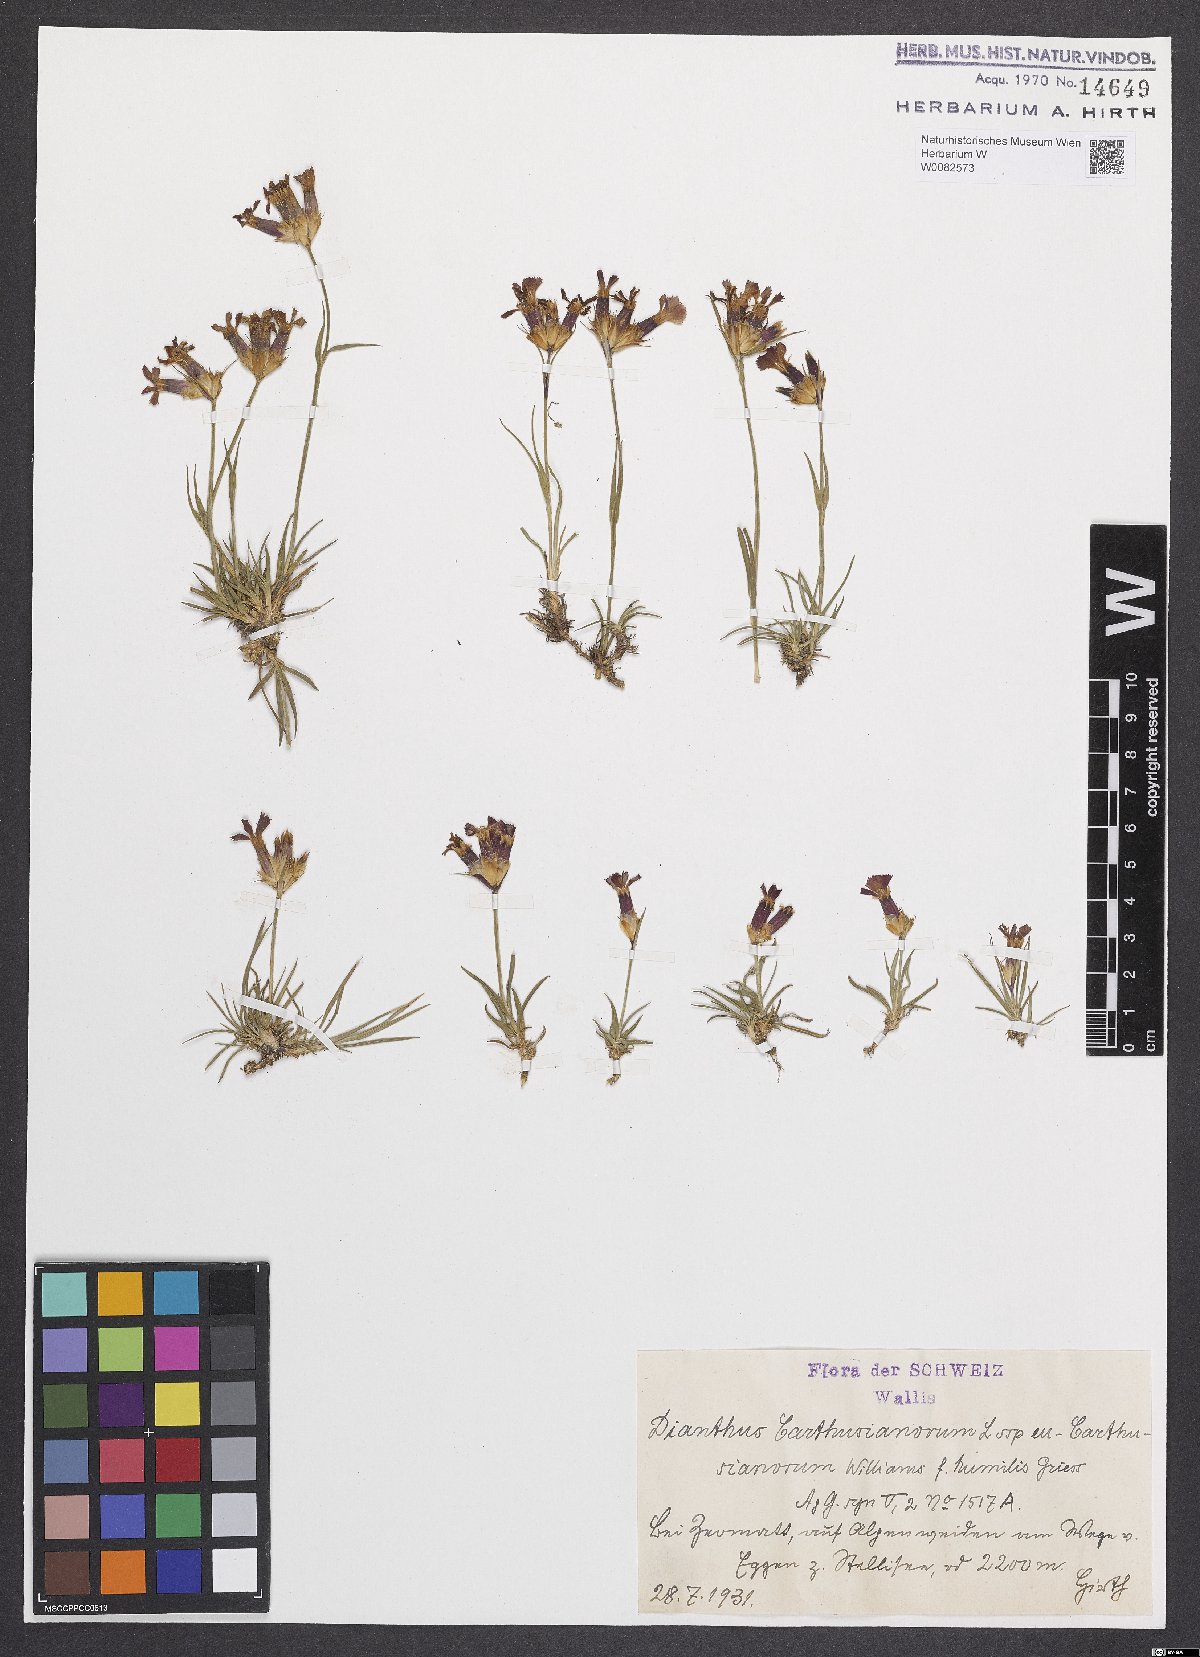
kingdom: Plantae
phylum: Tracheophyta
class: Magnoliopsida
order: Caryophyllales
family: Caryophyllaceae
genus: Dianthus
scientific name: Dianthus carthusianorum
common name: Carthusian pink
